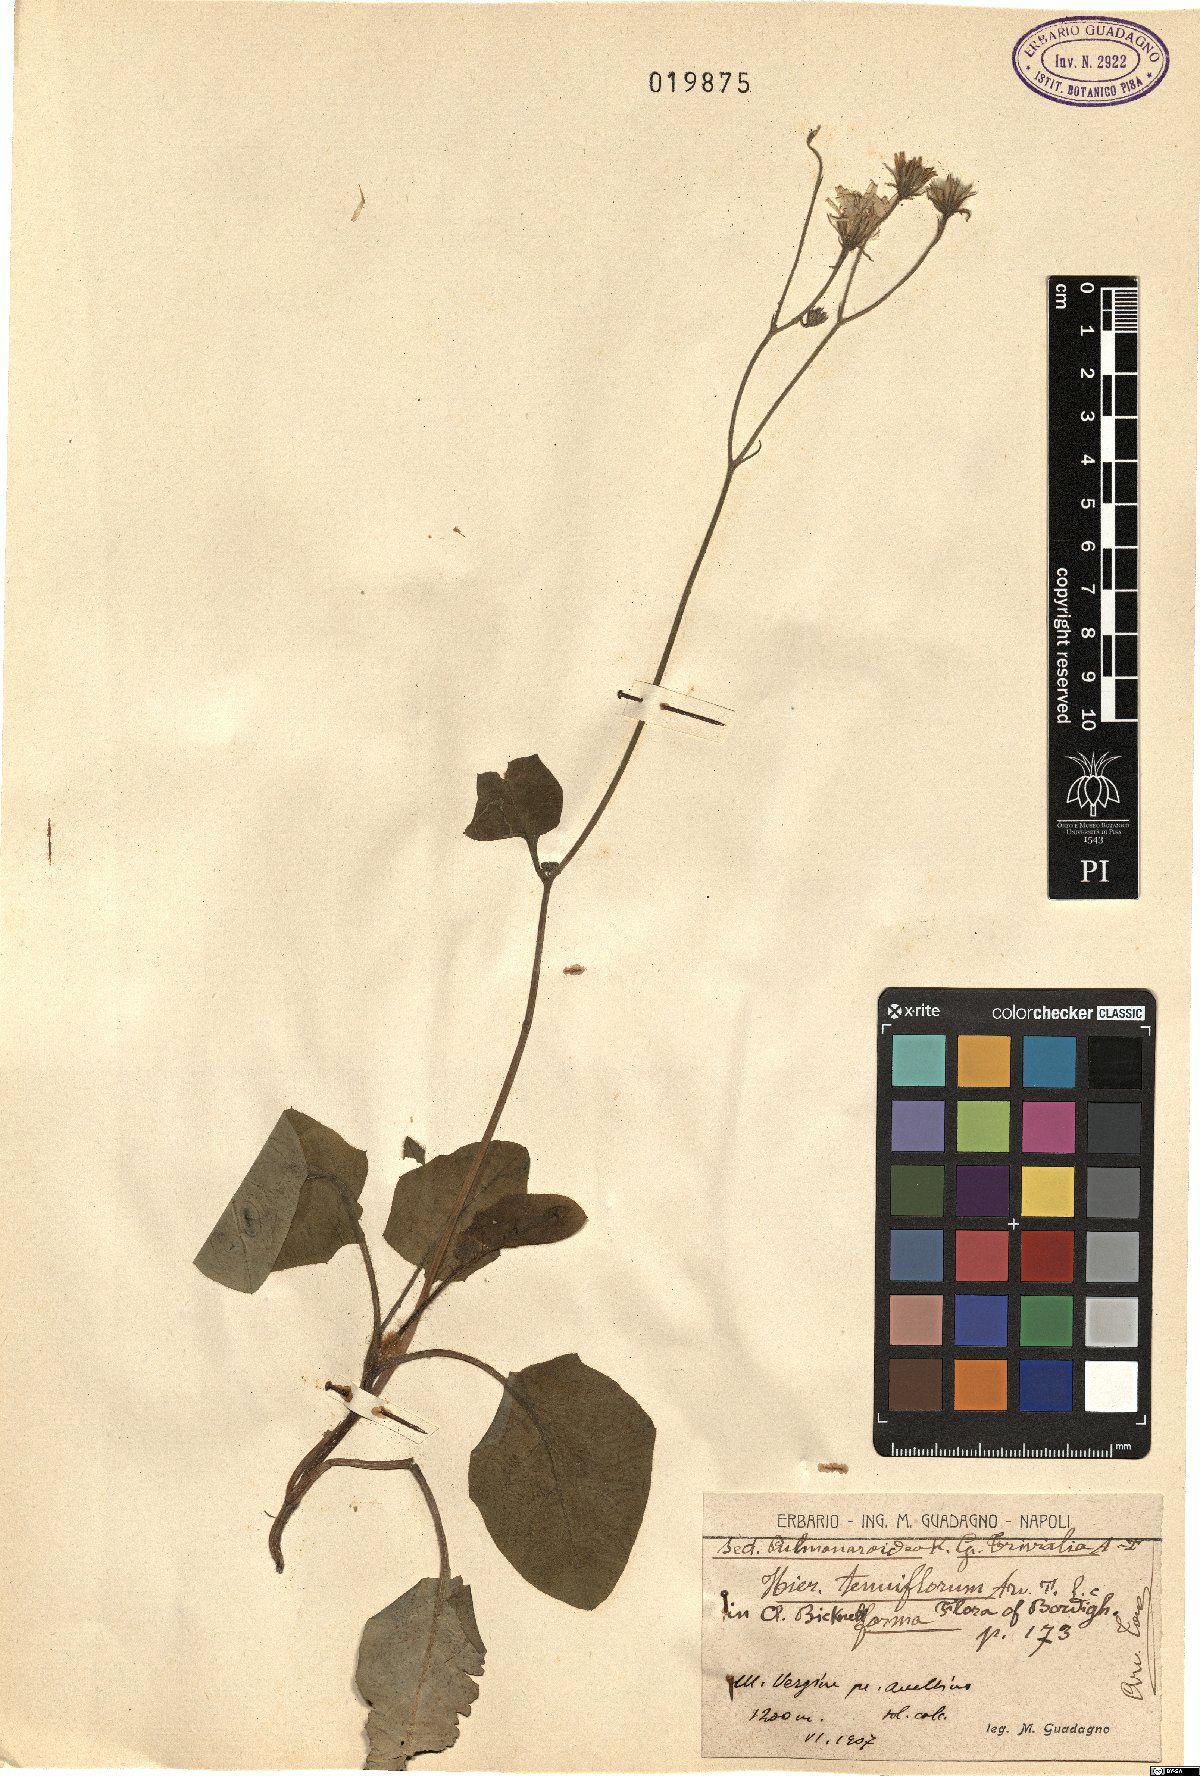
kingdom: Plantae
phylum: Tracheophyta
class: Magnoliopsida
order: Asterales
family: Asteraceae
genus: Hieracium
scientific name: Hieracium tenuiflorum
